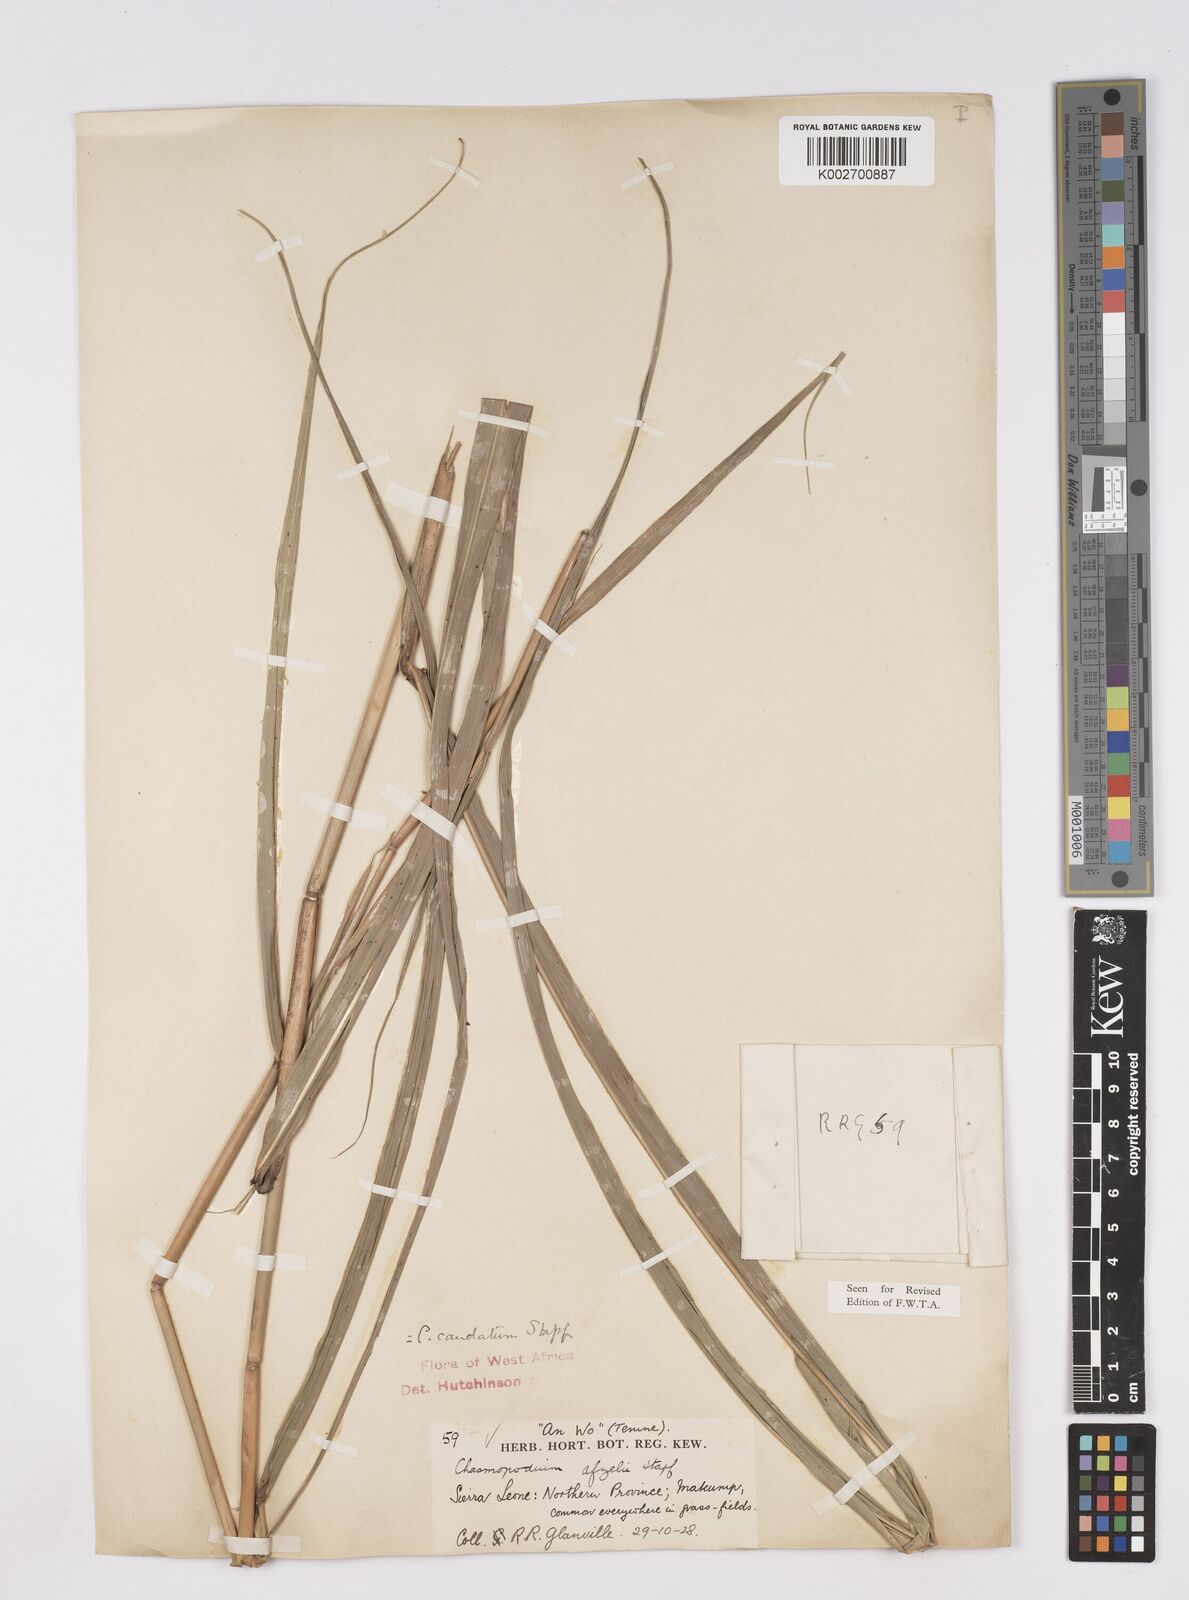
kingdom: Plantae
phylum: Tracheophyta
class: Liliopsida
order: Poales
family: Poaceae
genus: Chasmopodium
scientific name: Chasmopodium caudatum
